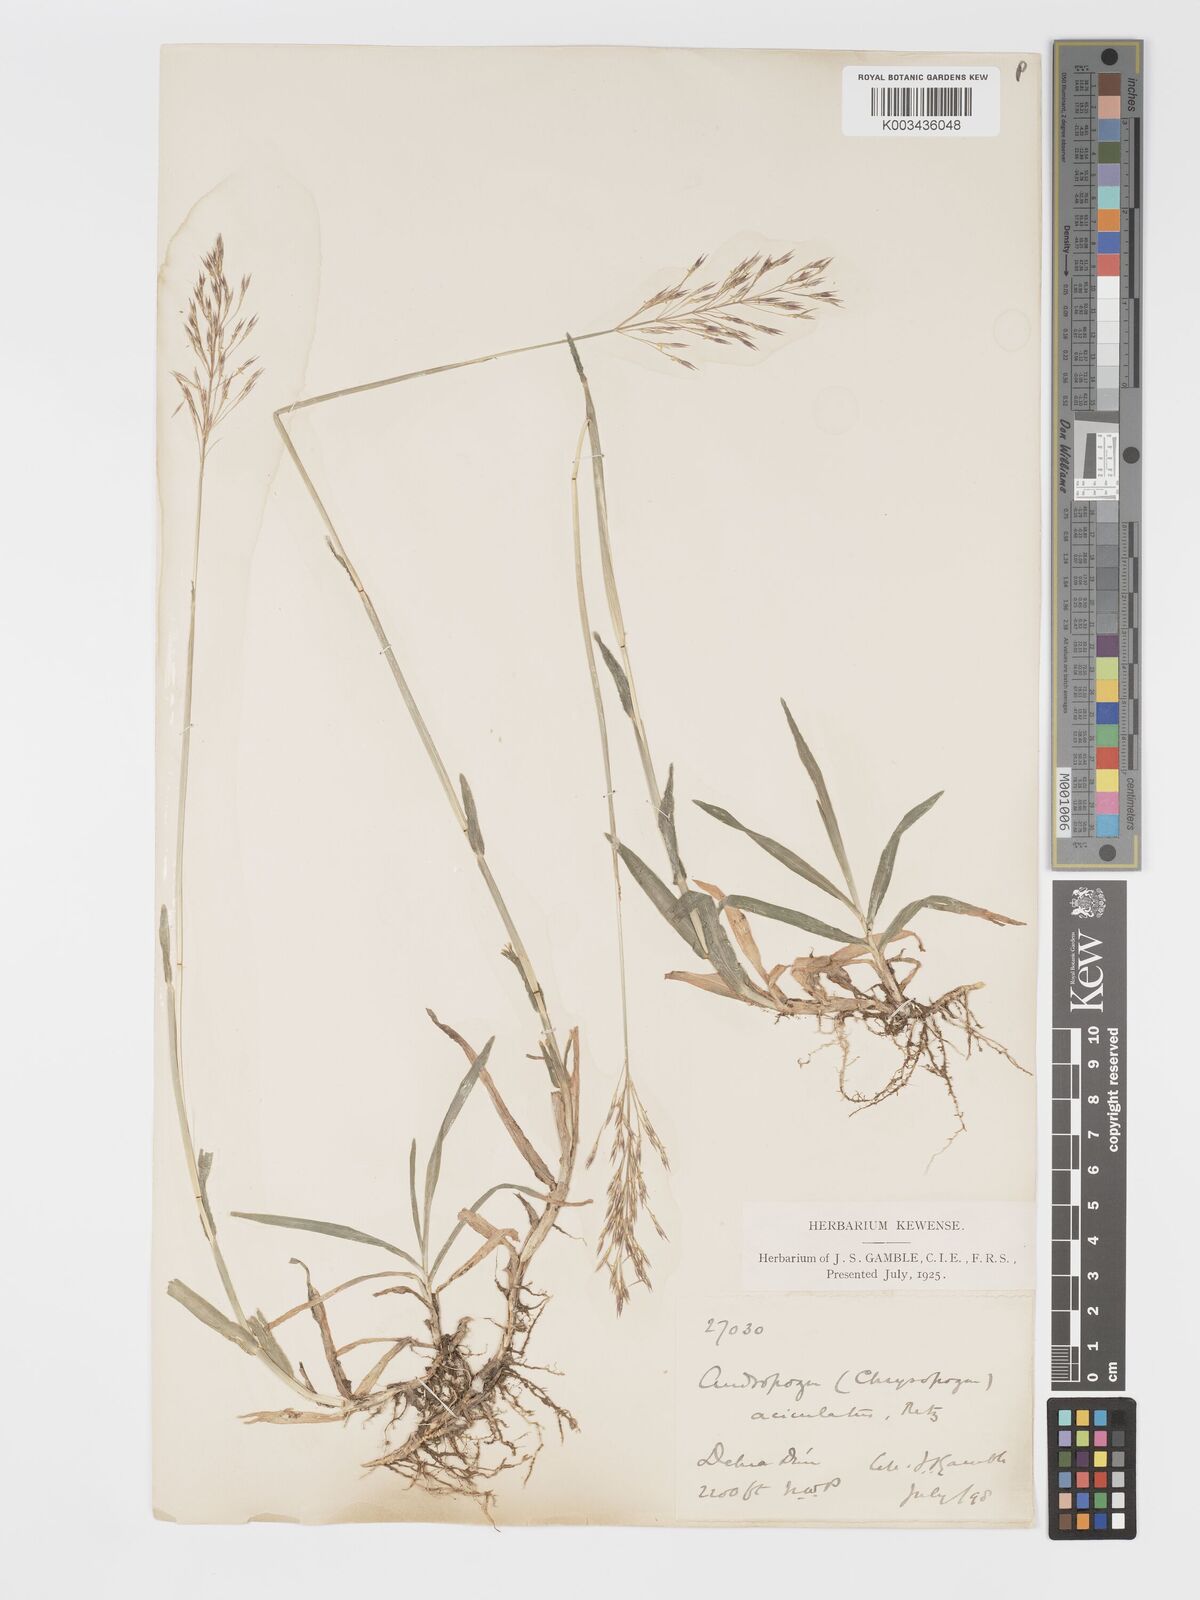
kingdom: Plantae
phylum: Tracheophyta
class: Liliopsida
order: Poales
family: Poaceae
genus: Chrysopogon
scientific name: Chrysopogon aciculatus
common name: Pilipiliula
